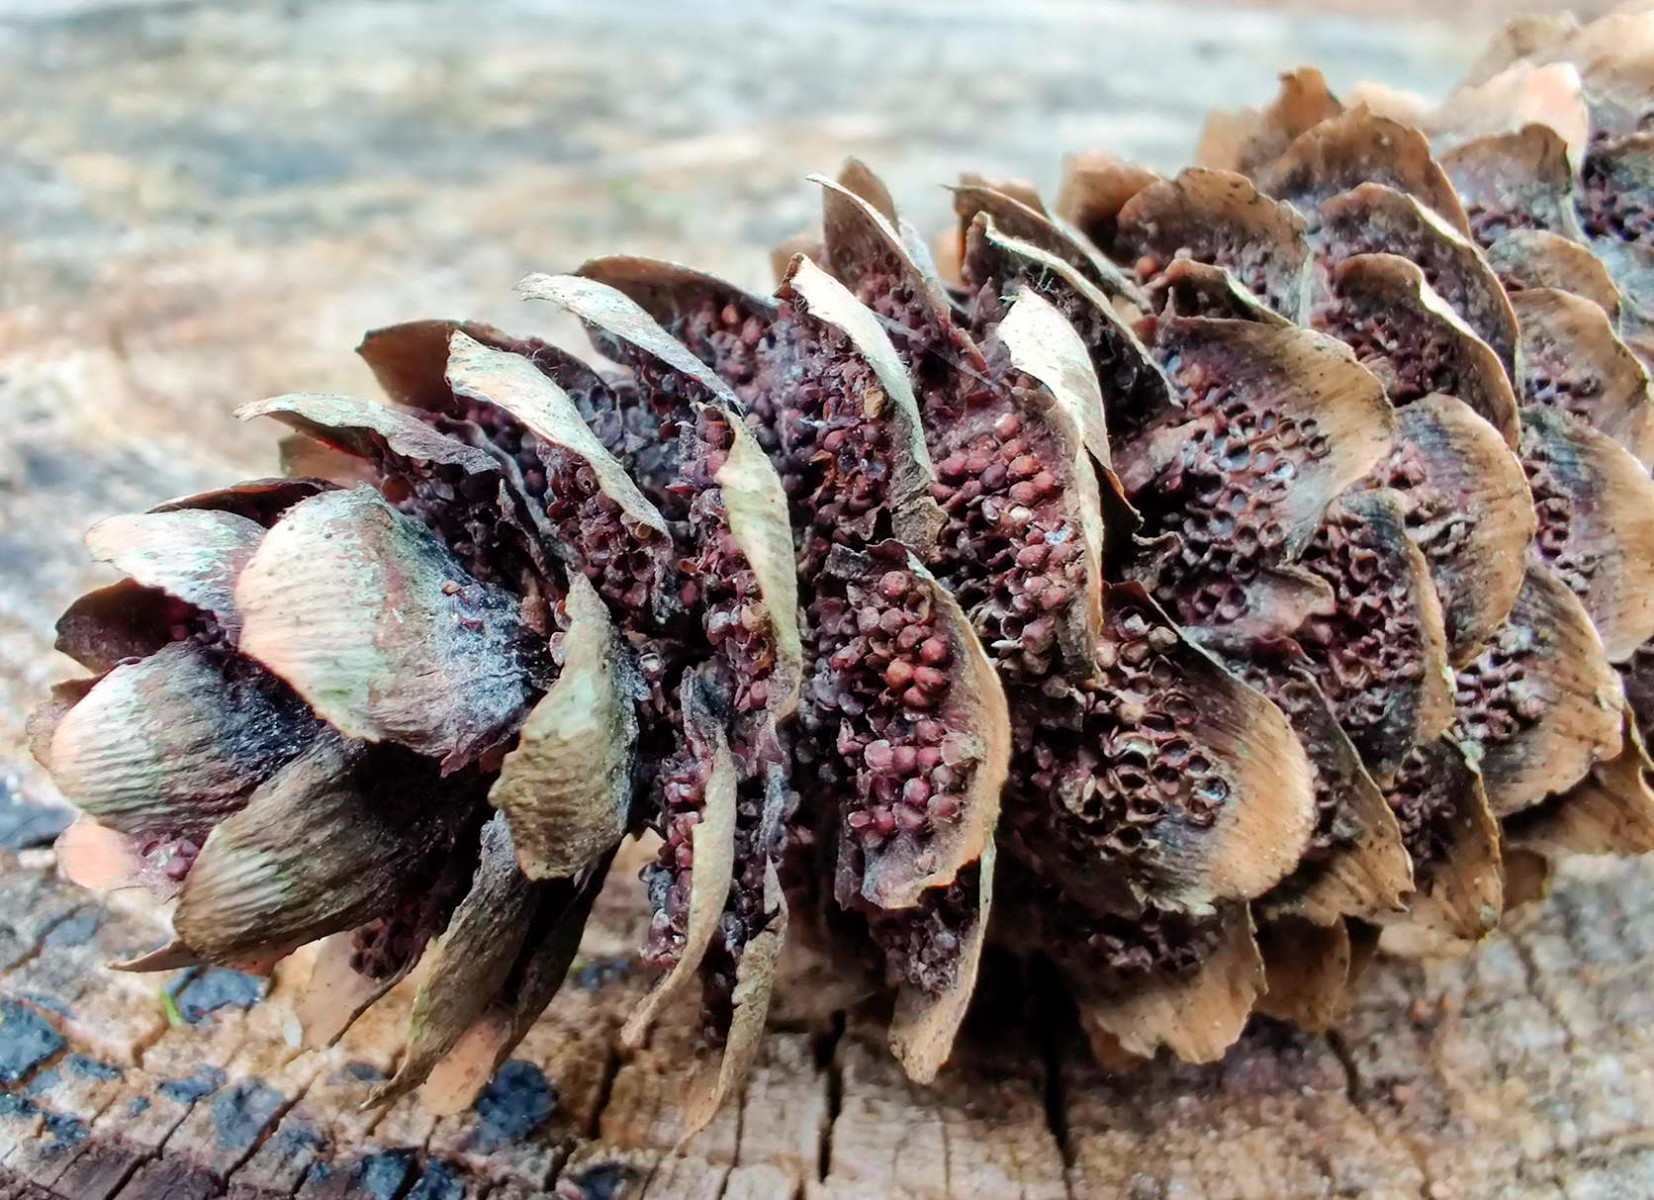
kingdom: Fungi
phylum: Basidiomycota
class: Pucciniomycetes
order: Pucciniales
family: Pucciniastraceae
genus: Thekopsora
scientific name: Thekopsora areolata
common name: grankogle-nålerust
